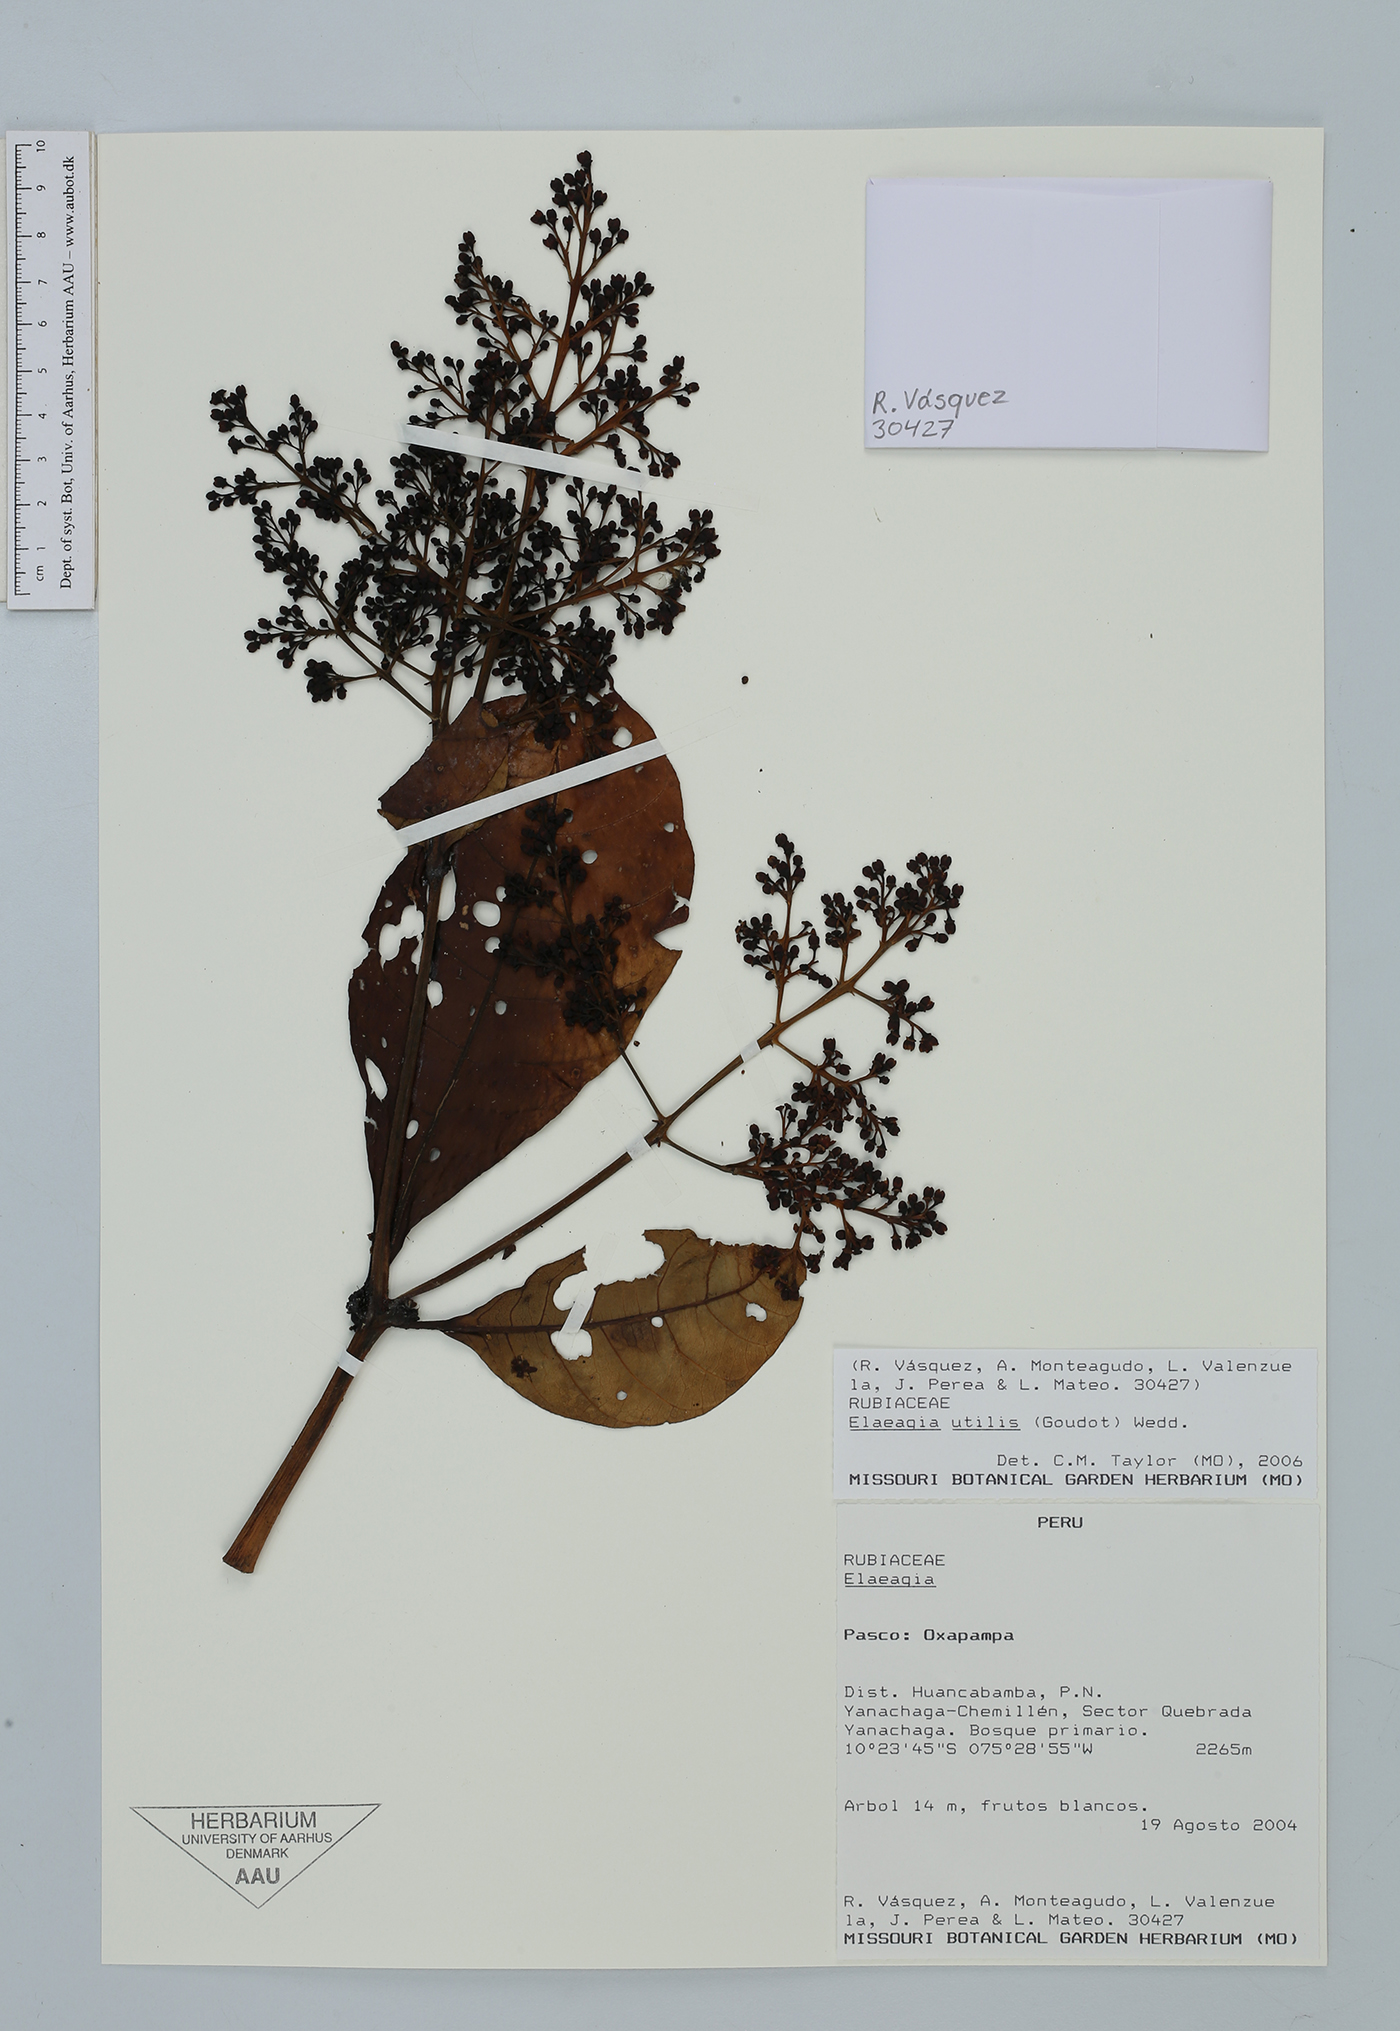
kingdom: Plantae
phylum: Tracheophyta
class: Magnoliopsida
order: Gentianales
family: Rubiaceae
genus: Elaeagia
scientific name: Elaeagia utilis
